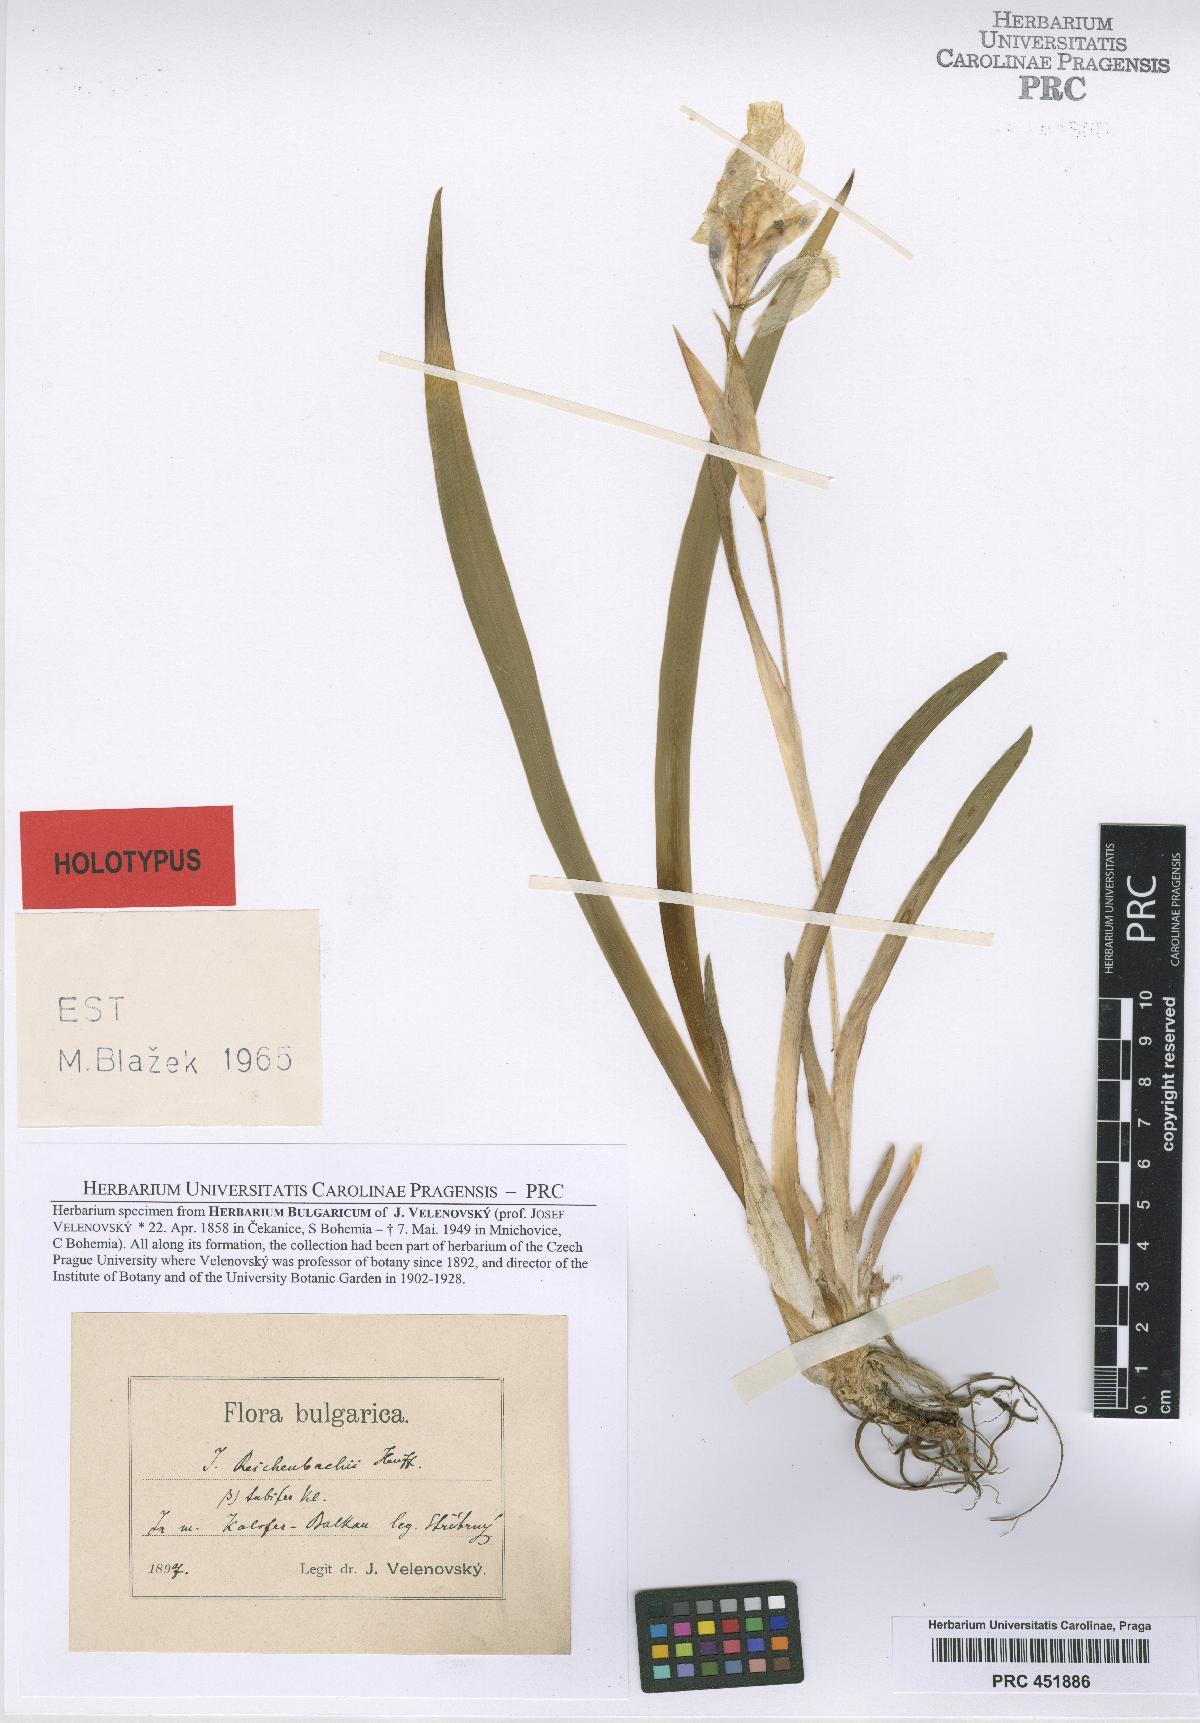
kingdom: Plantae
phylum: Tracheophyta
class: Liliopsida
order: Asparagales
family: Iridaceae
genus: Iris
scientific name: Iris reichenbachii
